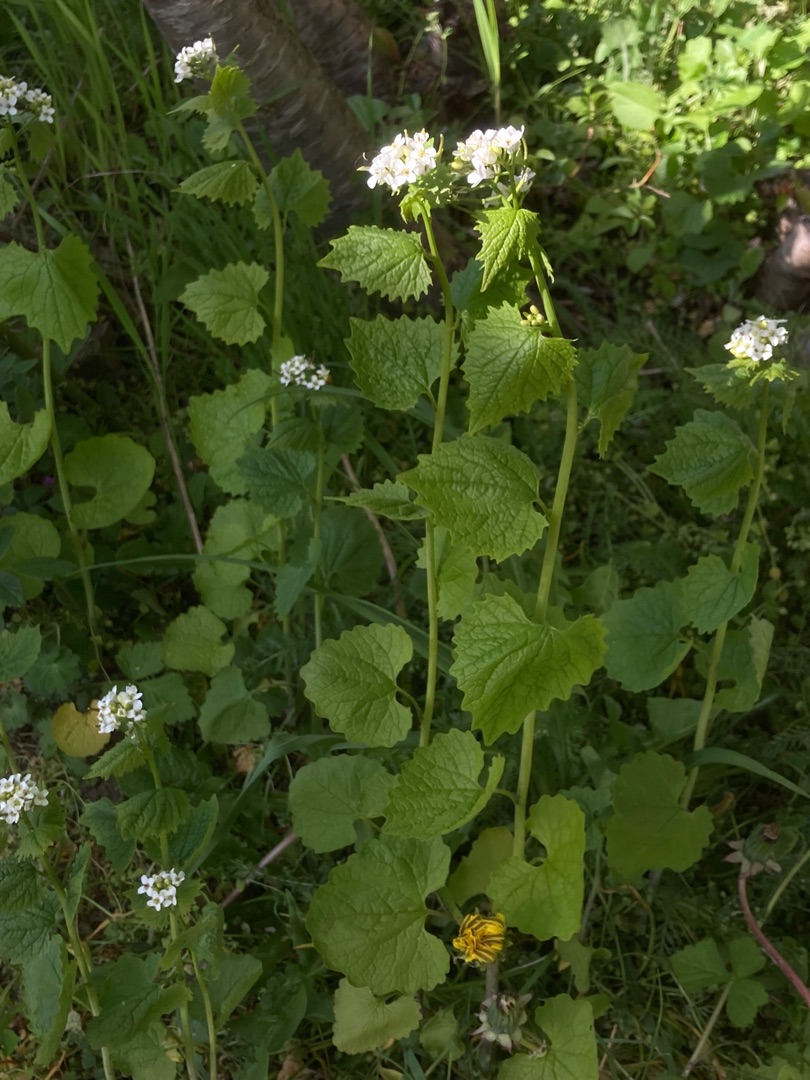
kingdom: Plantae
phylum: Tracheophyta
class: Magnoliopsida
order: Brassicales
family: Brassicaceae
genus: Alliaria
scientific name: Alliaria petiolata
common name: Løgkarse
